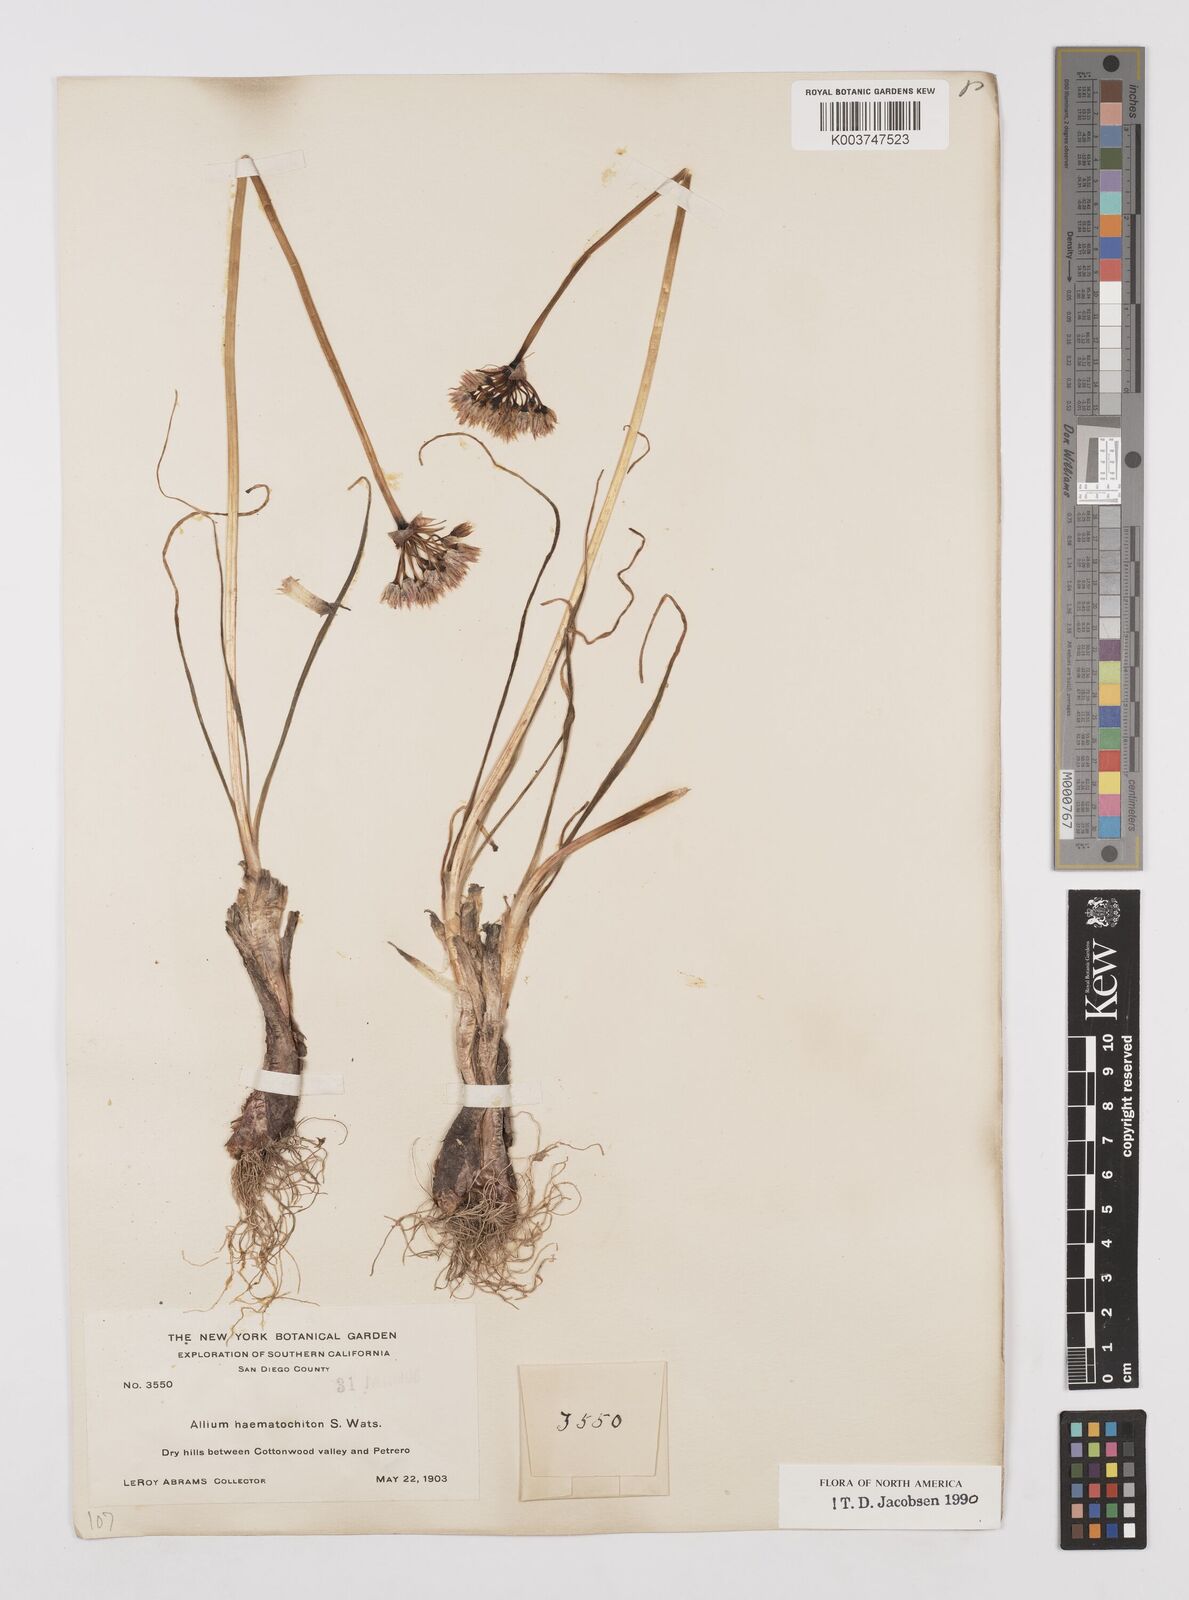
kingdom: Plantae
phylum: Tracheophyta
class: Liliopsida
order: Asparagales
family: Amaryllidaceae
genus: Allium
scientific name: Allium haematochiton
